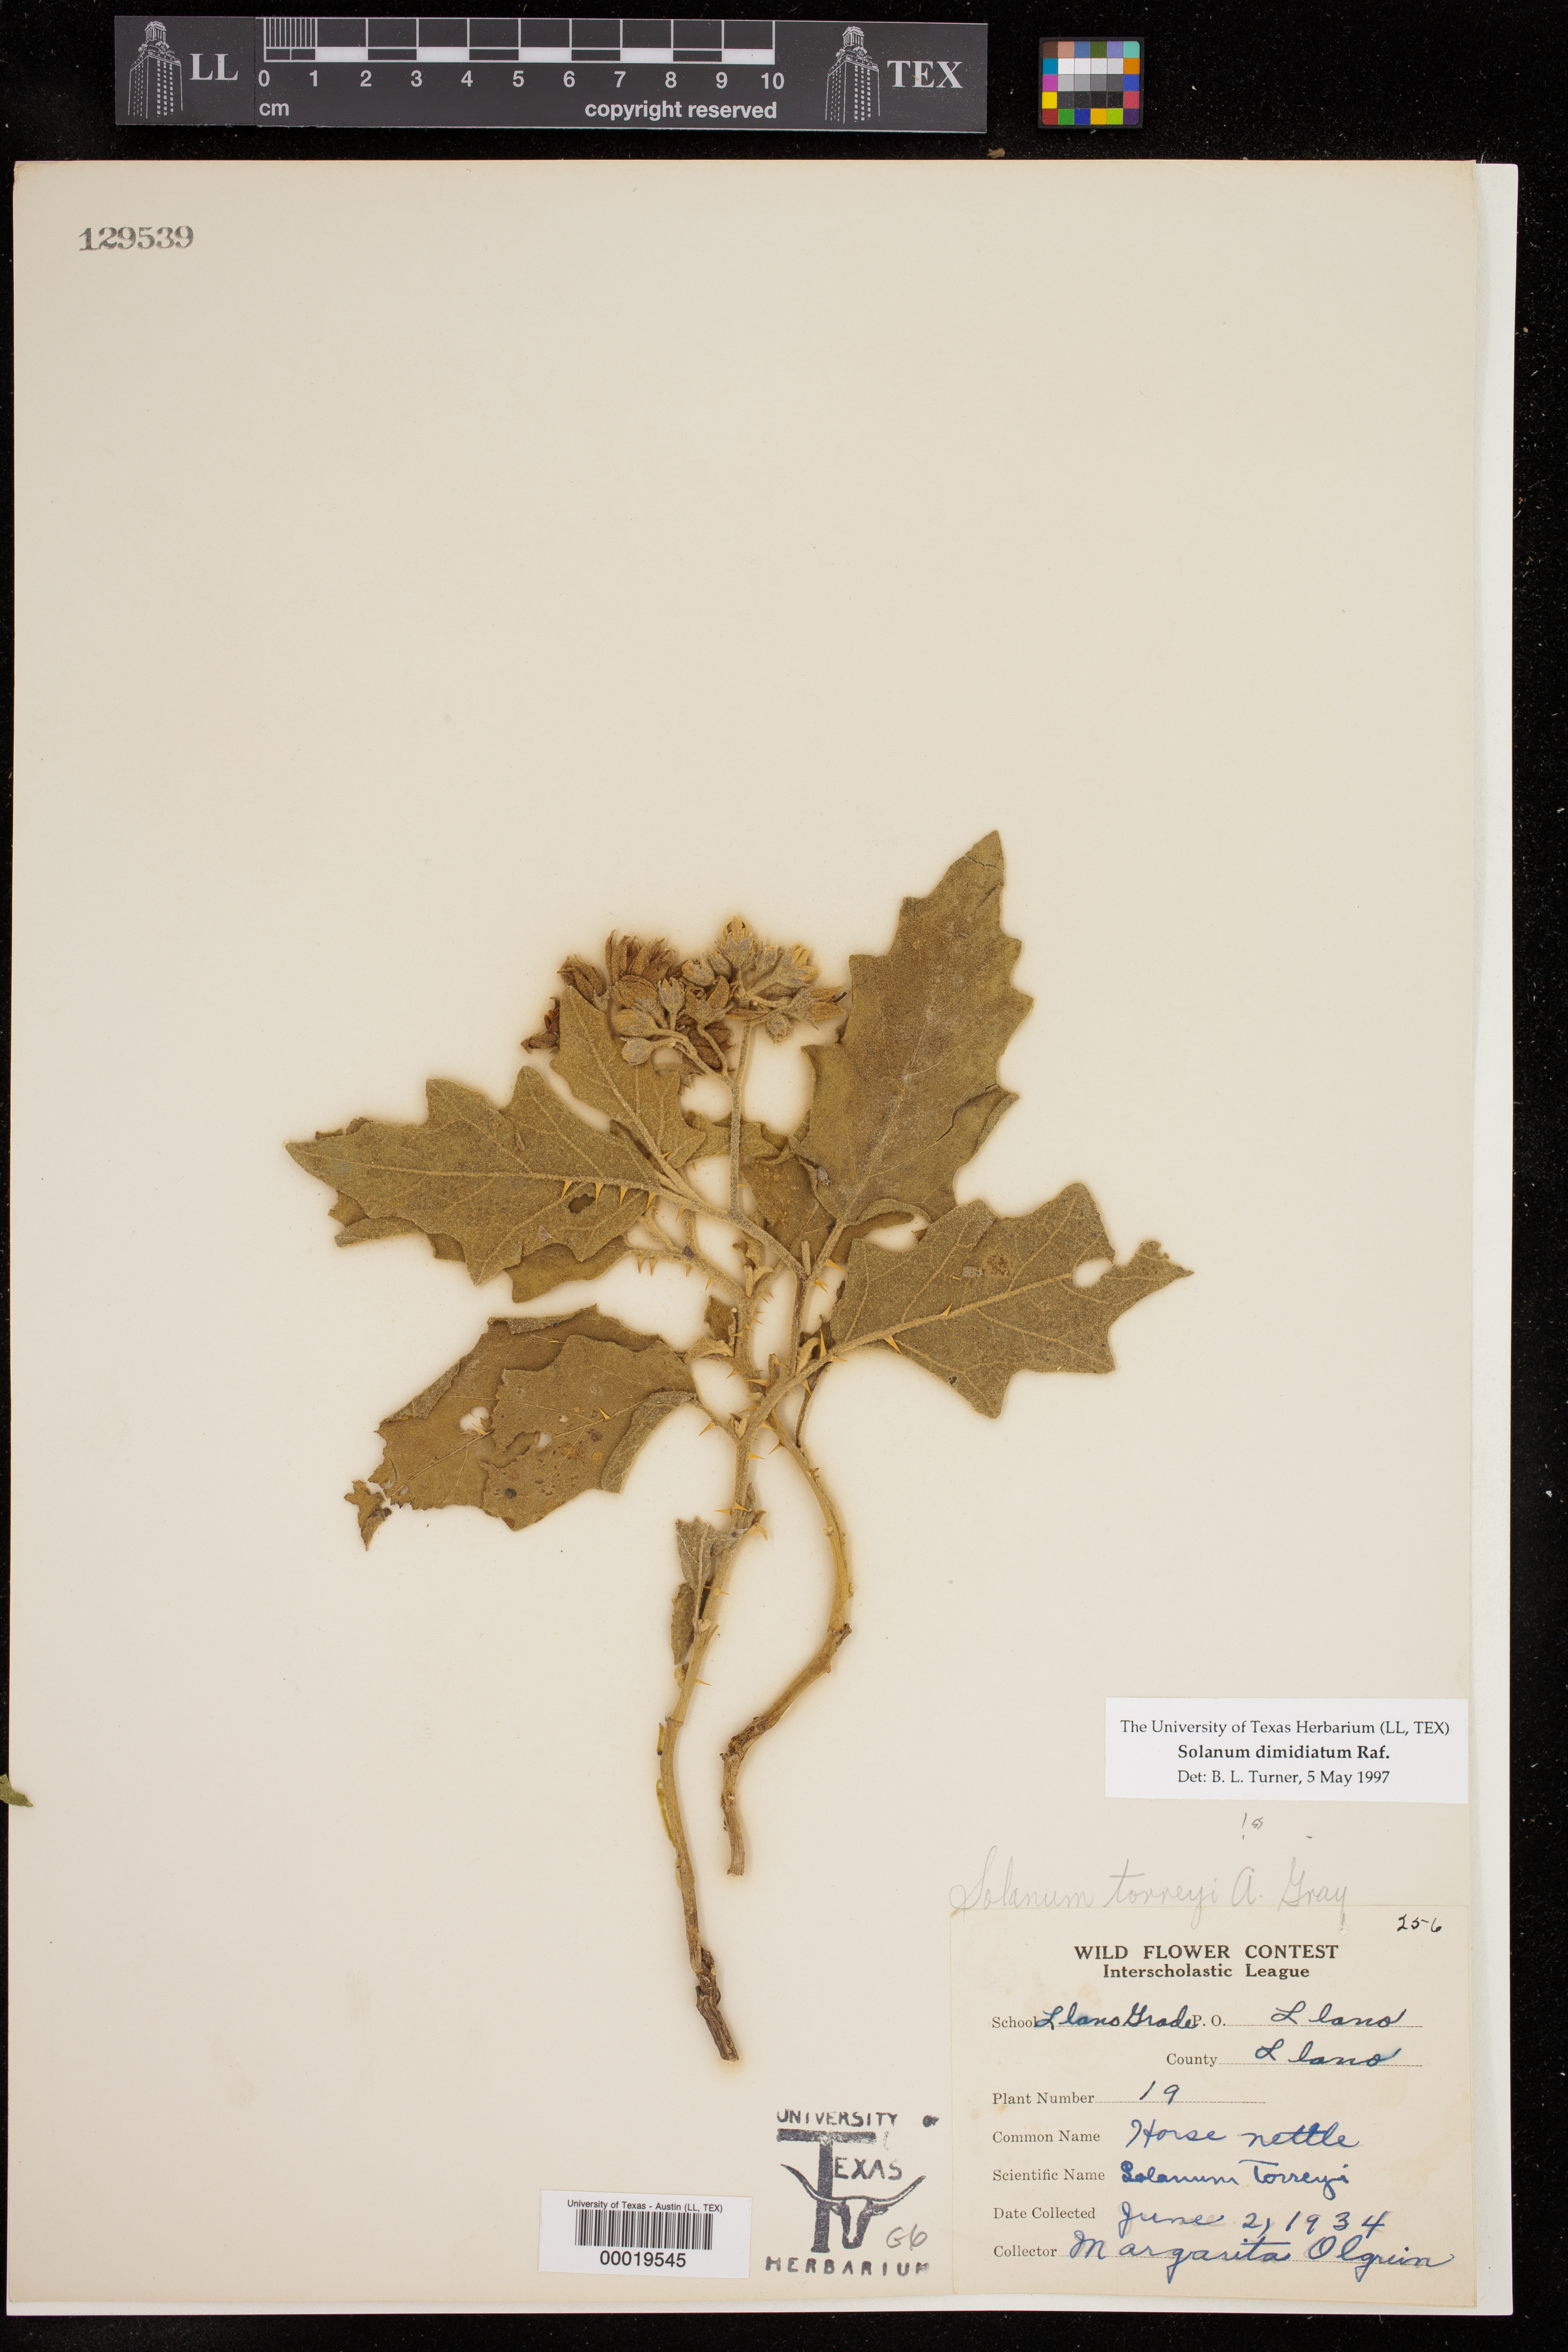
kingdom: Plantae
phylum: Tracheophyta
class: Magnoliopsida
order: Solanales
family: Solanaceae
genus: Solanum
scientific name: Solanum dimidiatum
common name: Carolina horse-nettle
